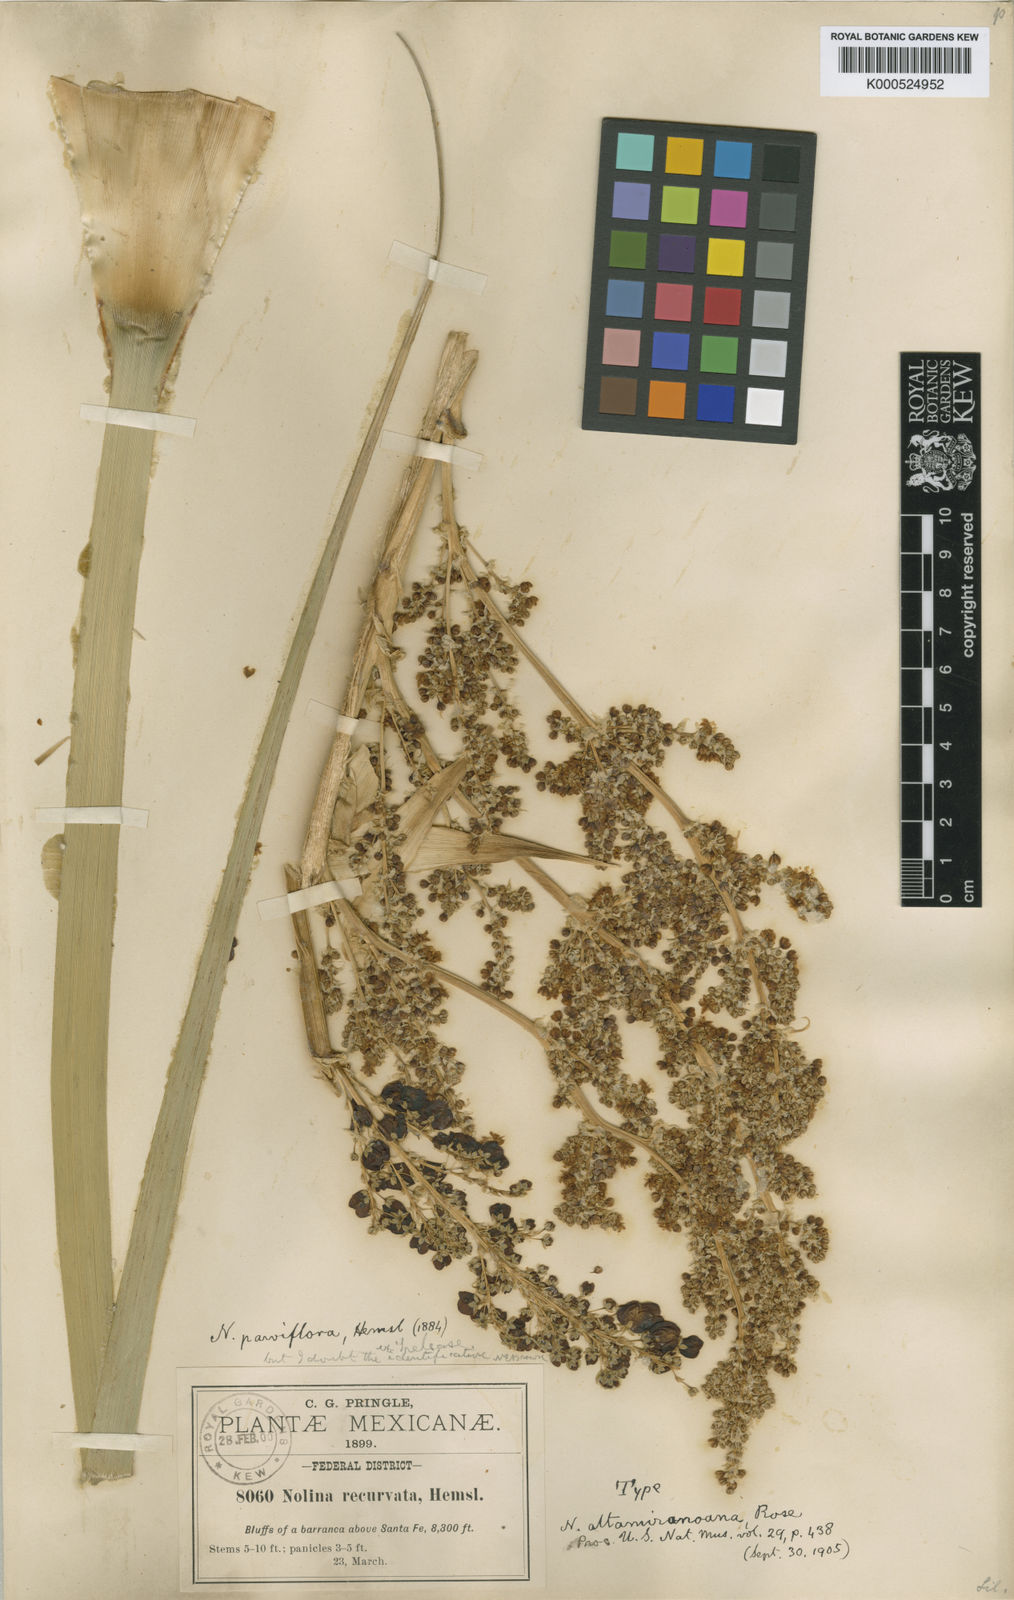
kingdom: Plantae
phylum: Tracheophyta
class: Liliopsida
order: Asparagales
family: Asparagaceae
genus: Nolina
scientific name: Nolina parviflora
